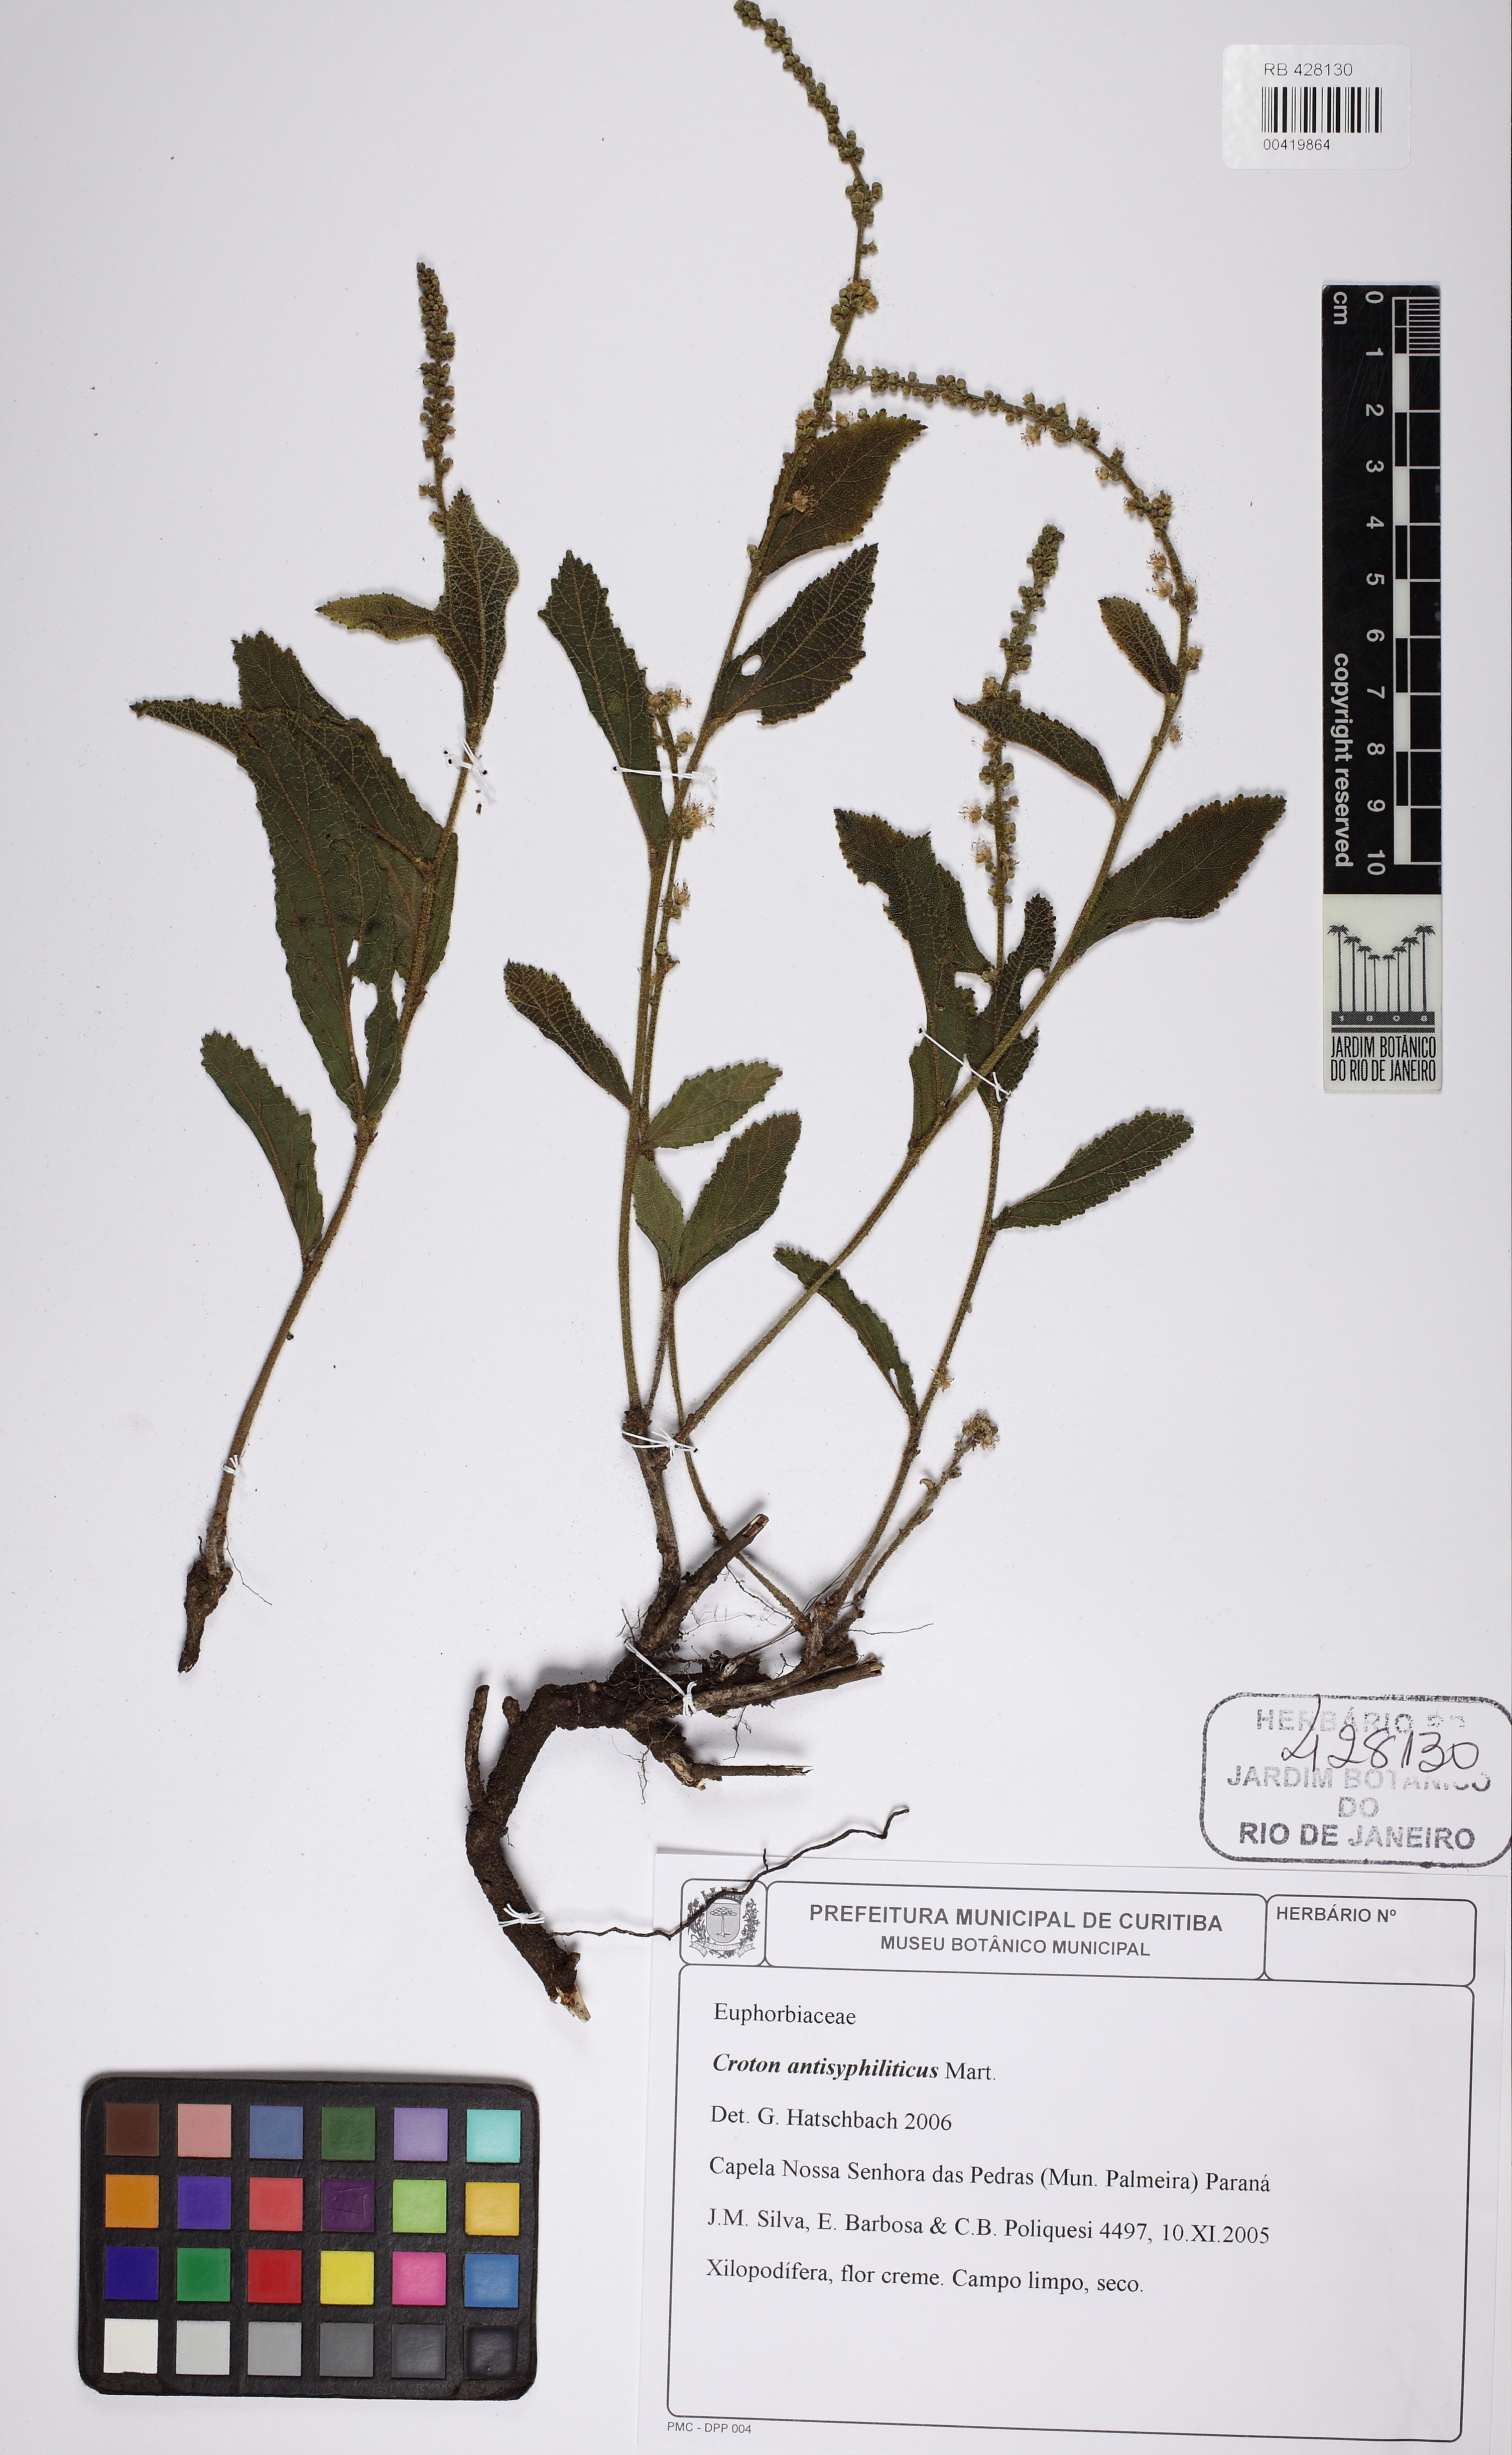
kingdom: Plantae
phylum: Tracheophyta
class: Magnoliopsida
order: Malpighiales
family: Euphorbiaceae
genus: Croton
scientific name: Croton antisyphiliticus
